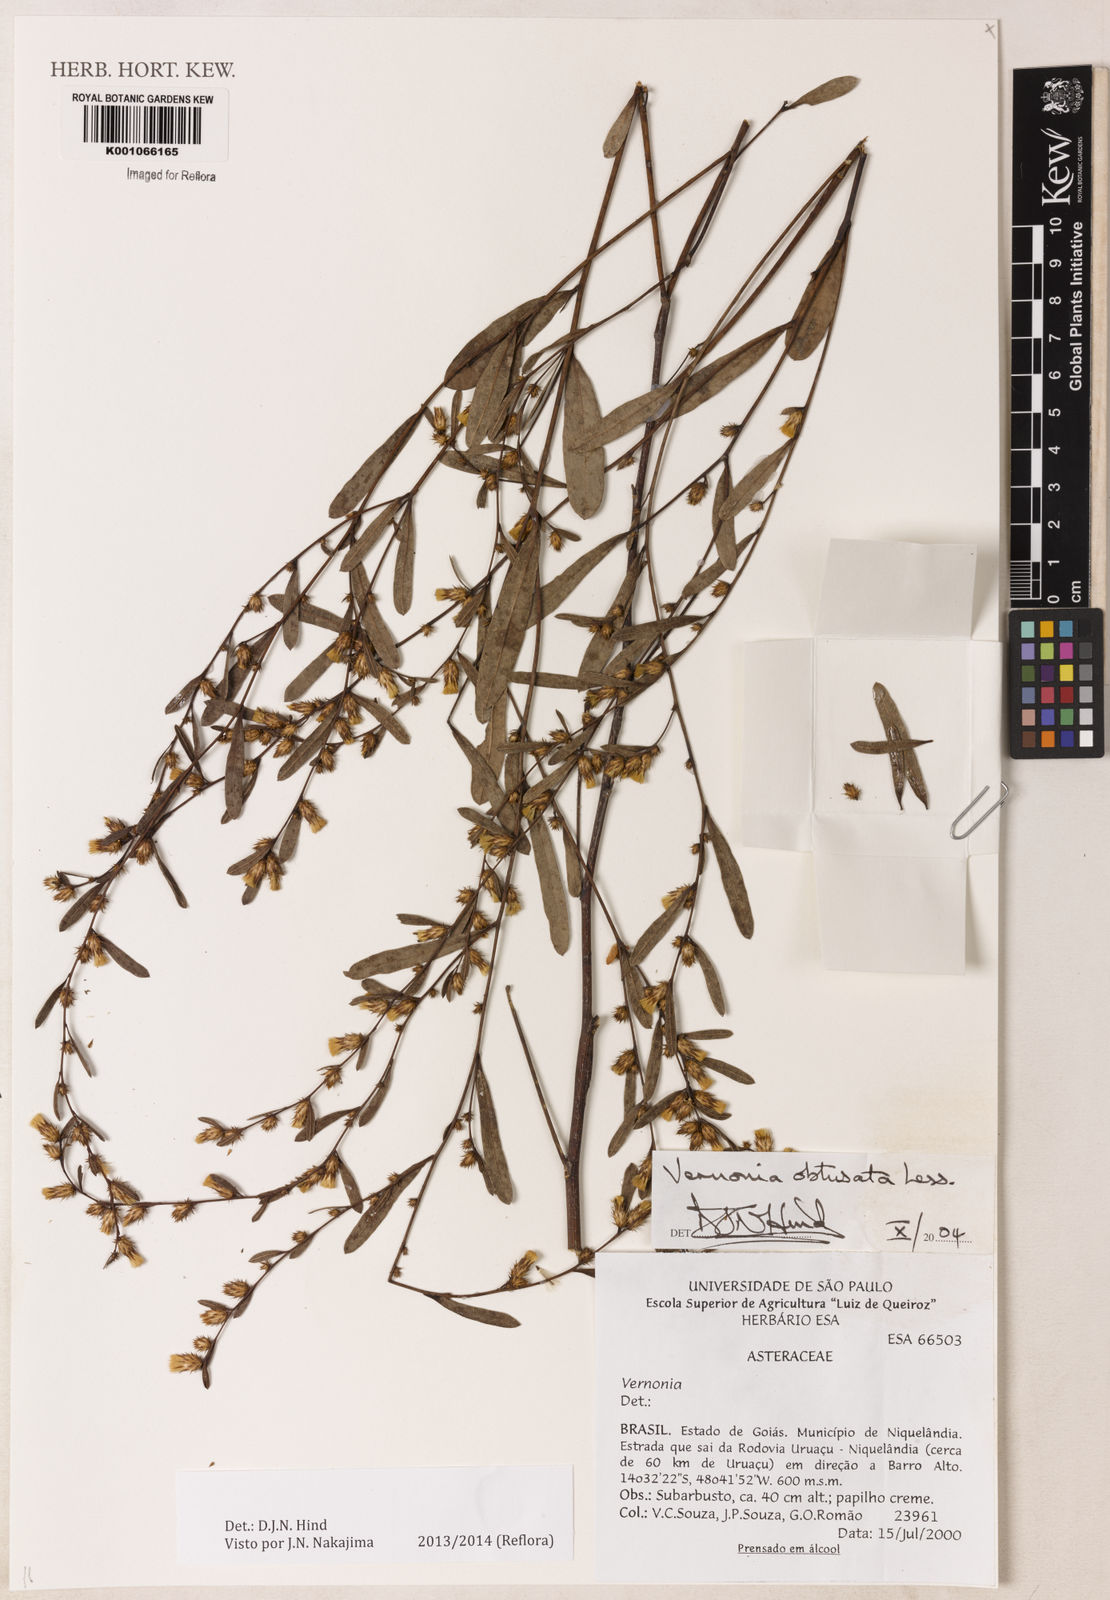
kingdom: Plantae
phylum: Tracheophyta
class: Magnoliopsida
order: Asterales
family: Asteraceae
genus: Lessingianthus
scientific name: Lessingianthus obtusatus
